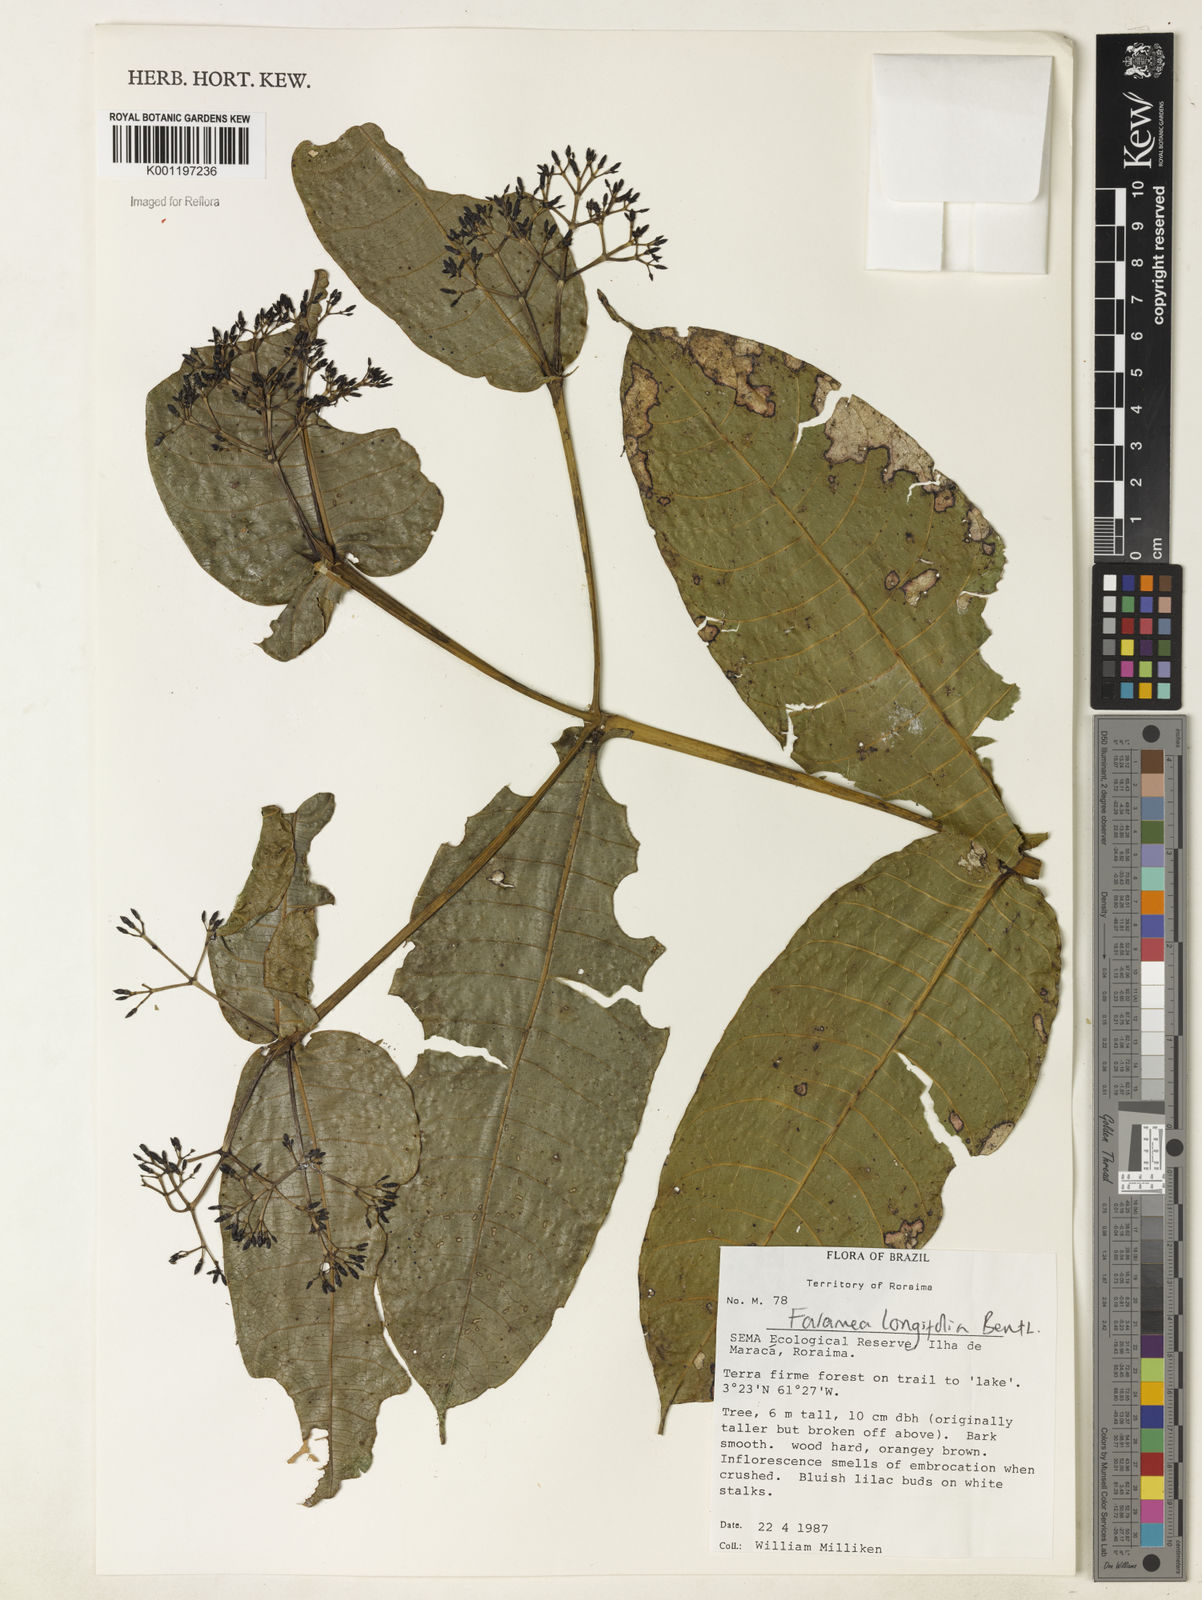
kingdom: Plantae
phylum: Tracheophyta
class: Magnoliopsida
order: Gentianales
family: Rubiaceae
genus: Faramea
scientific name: Faramea sessilifolia
